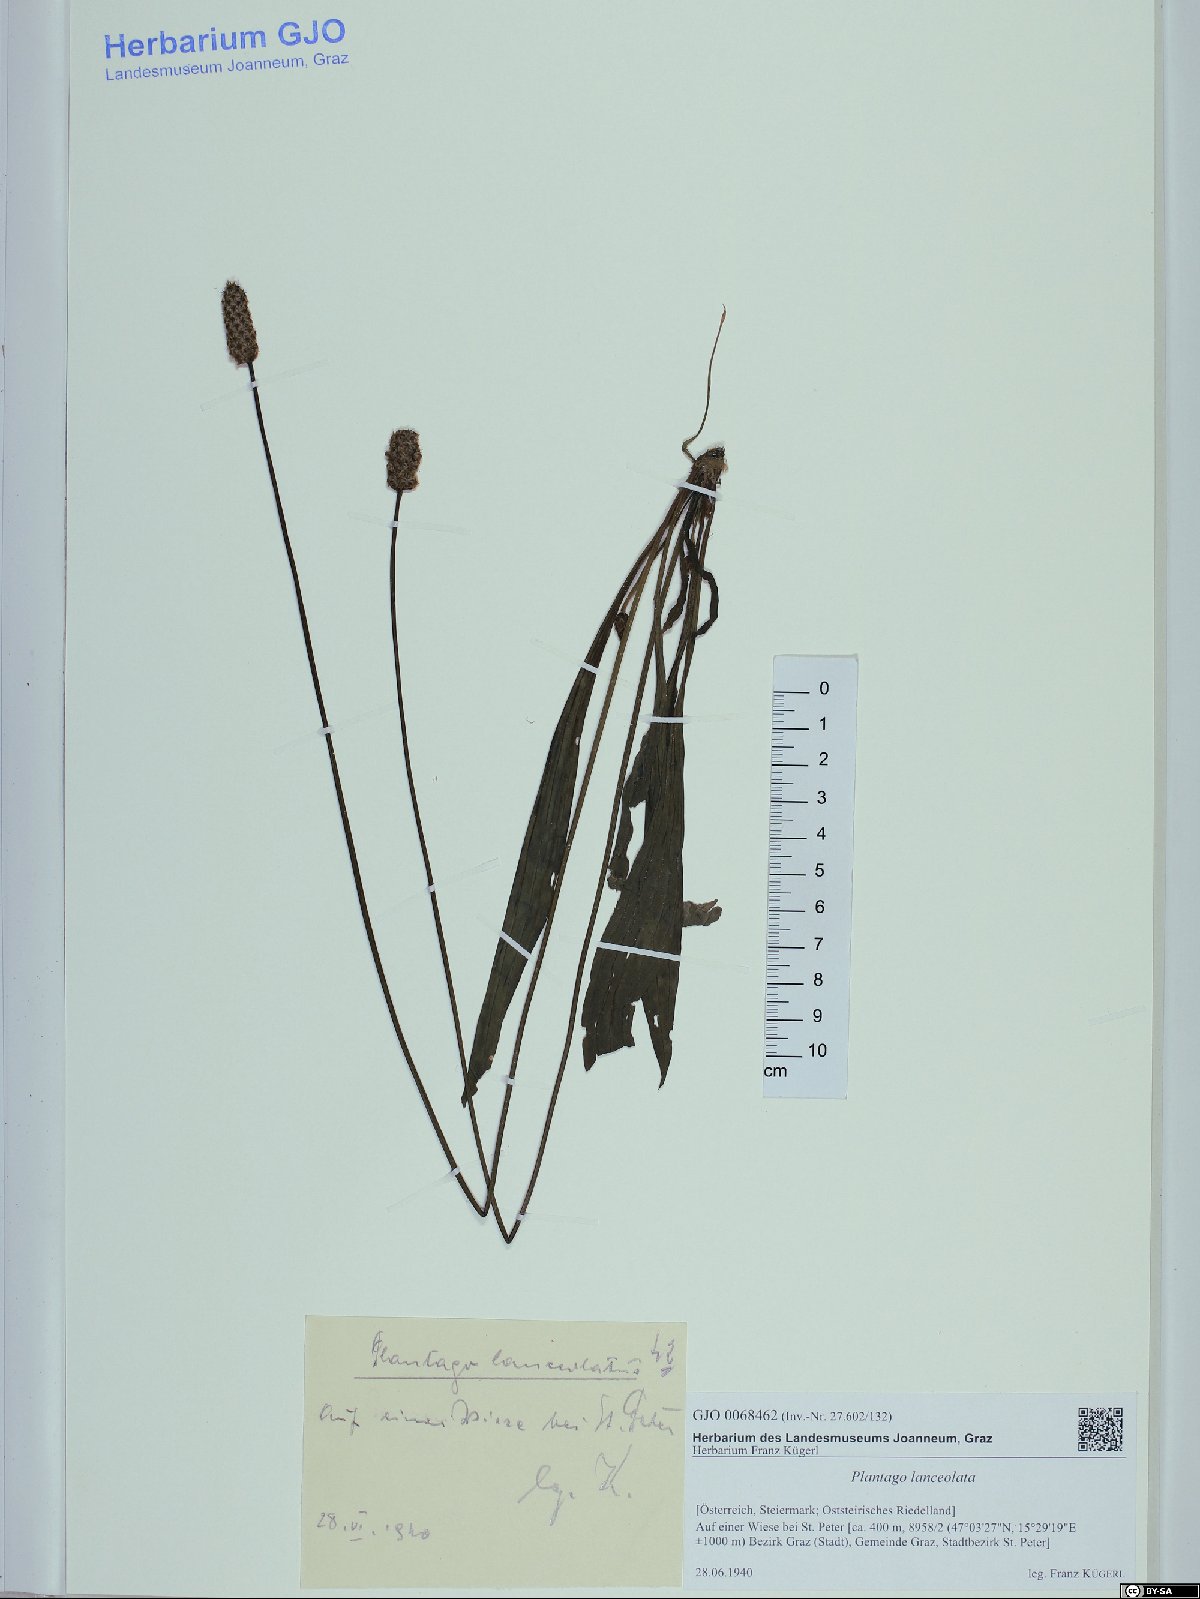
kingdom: Plantae
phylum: Tracheophyta
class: Magnoliopsida
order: Lamiales
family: Plantaginaceae
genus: Plantago
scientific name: Plantago lanceolata
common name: Ribwort plantain
